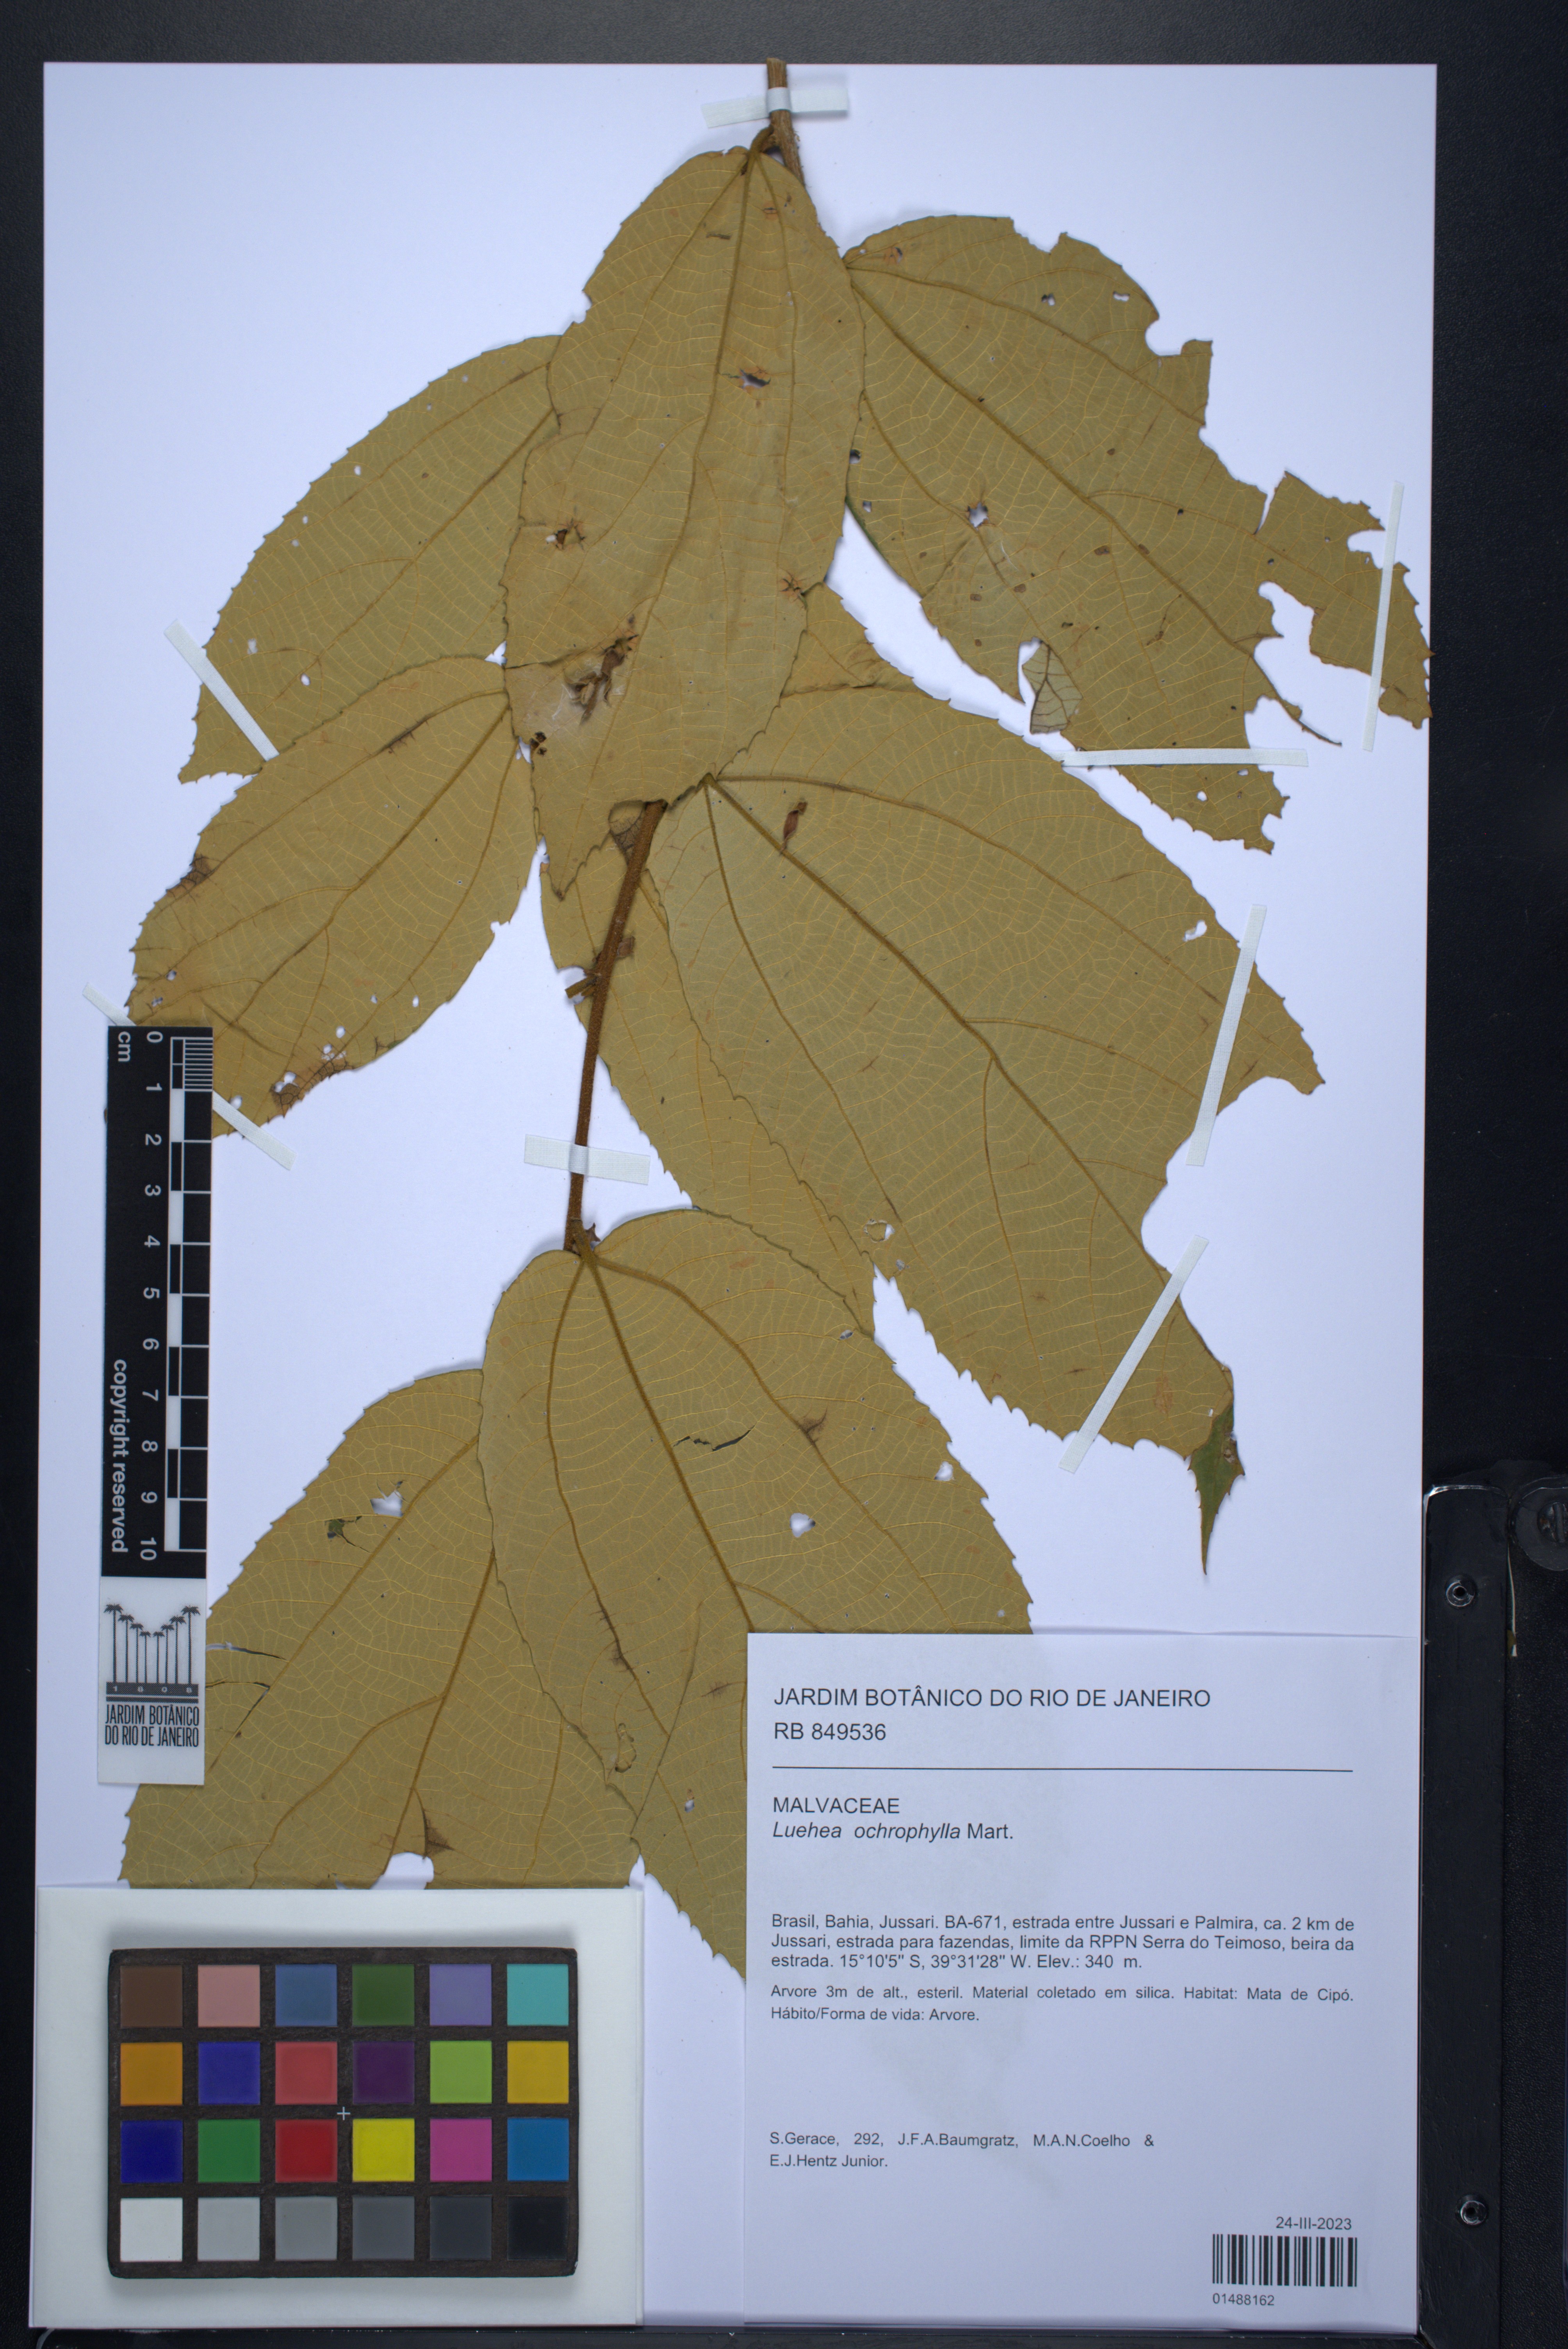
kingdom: Plantae
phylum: Tracheophyta
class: Magnoliopsida
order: Malvales
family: Malvaceae
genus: Luehea
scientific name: Luehea ochrophylla
